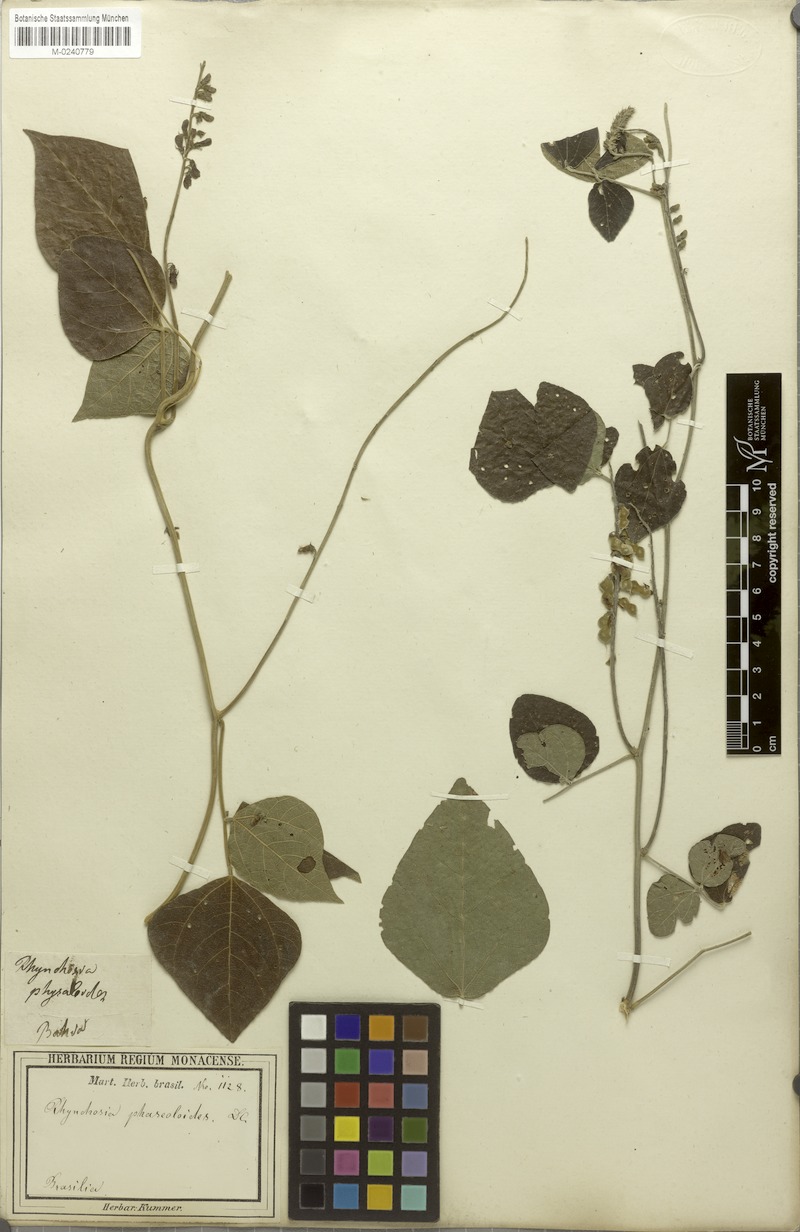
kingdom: Plantae
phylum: Tracheophyta
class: Magnoliopsida
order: Fabales
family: Fabaceae
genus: Rhynchosia
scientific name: Rhynchosia phaseoloides
